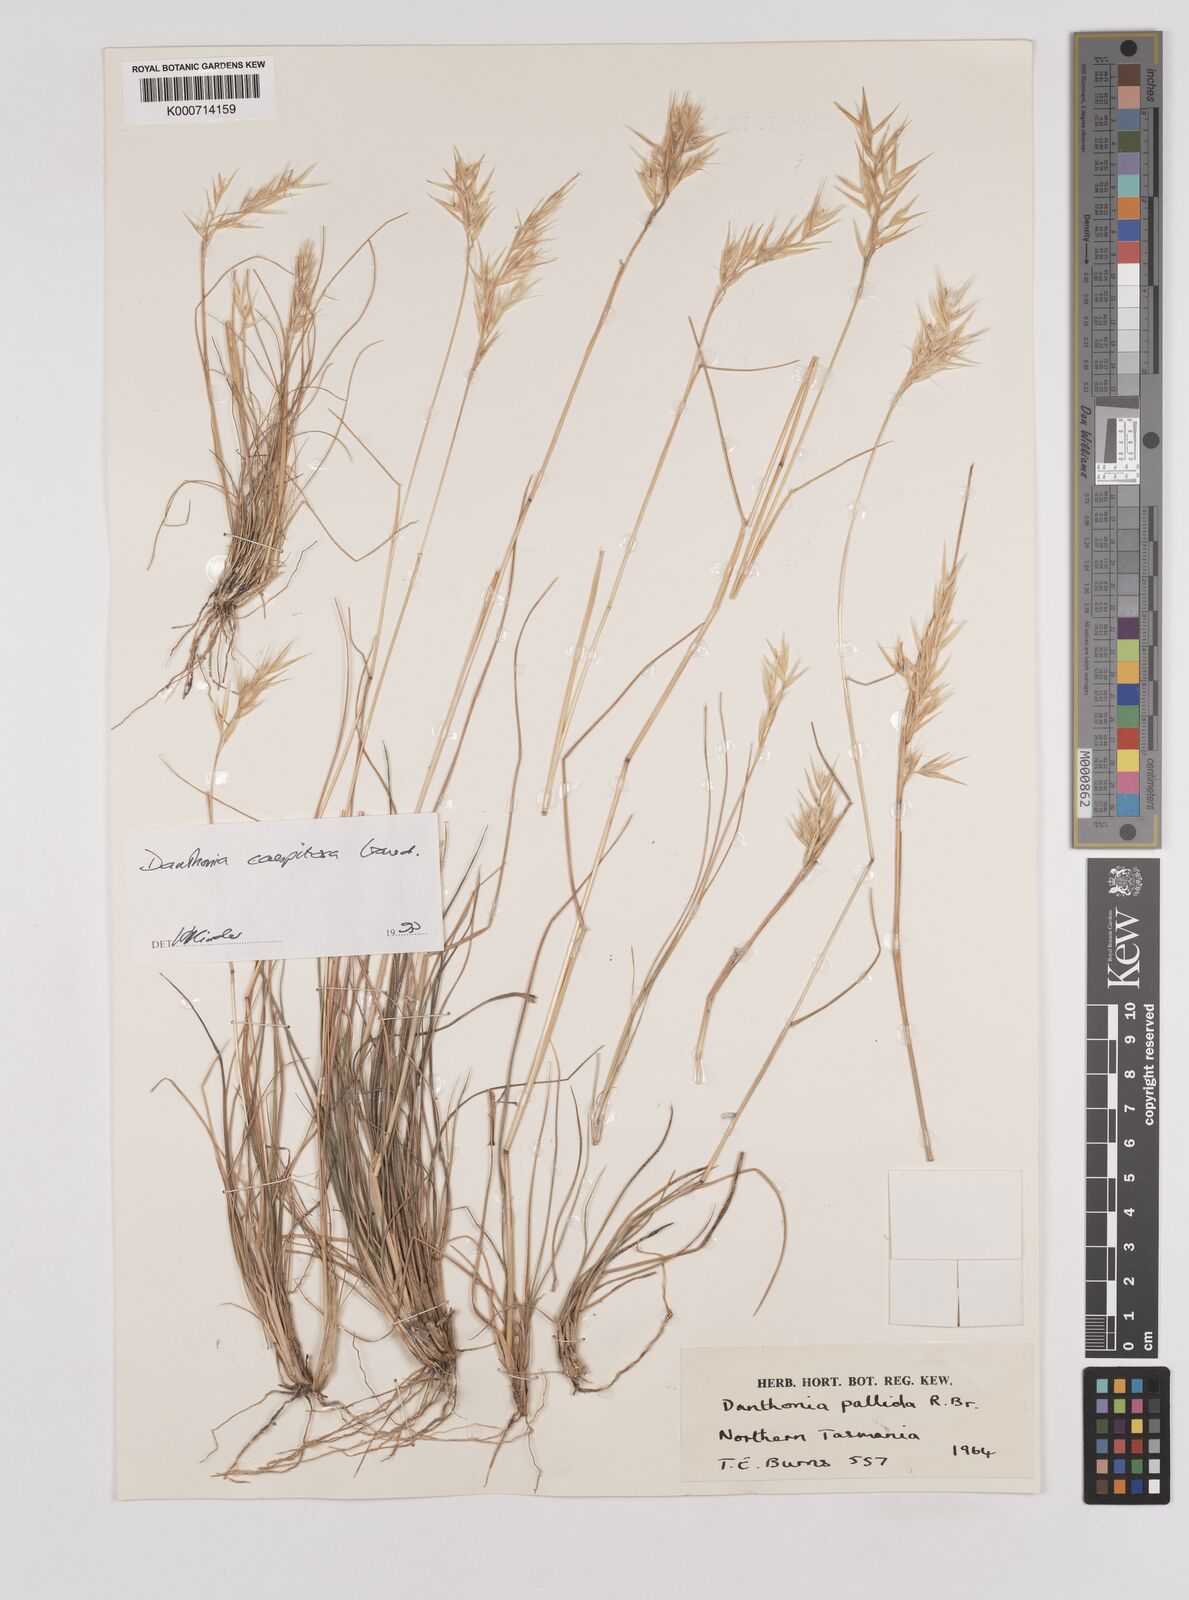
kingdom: Plantae
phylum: Tracheophyta
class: Liliopsida
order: Poales
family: Poaceae
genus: Rytidosperma
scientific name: Rytidosperma
